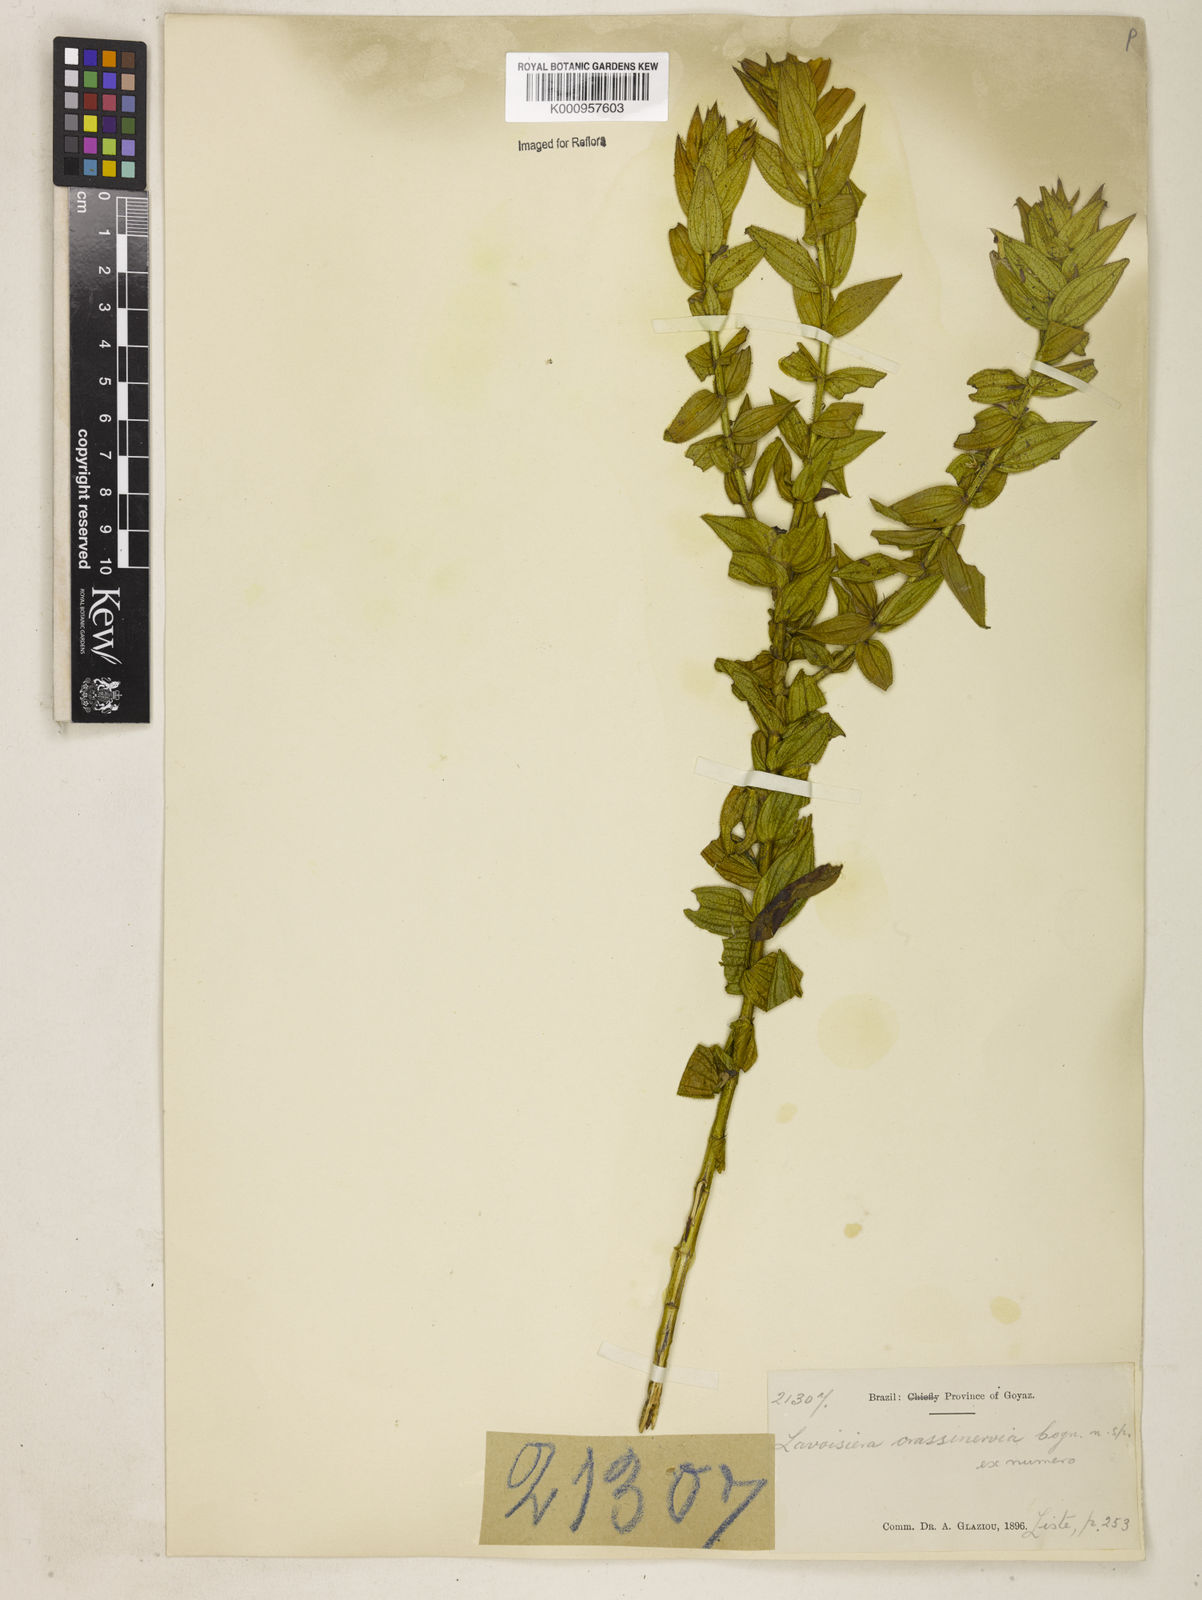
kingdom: Plantae
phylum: Tracheophyta
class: Magnoliopsida
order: Myrtales
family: Melastomataceae
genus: Microlicia
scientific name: Microlicia Lavoisiera crassinervia
